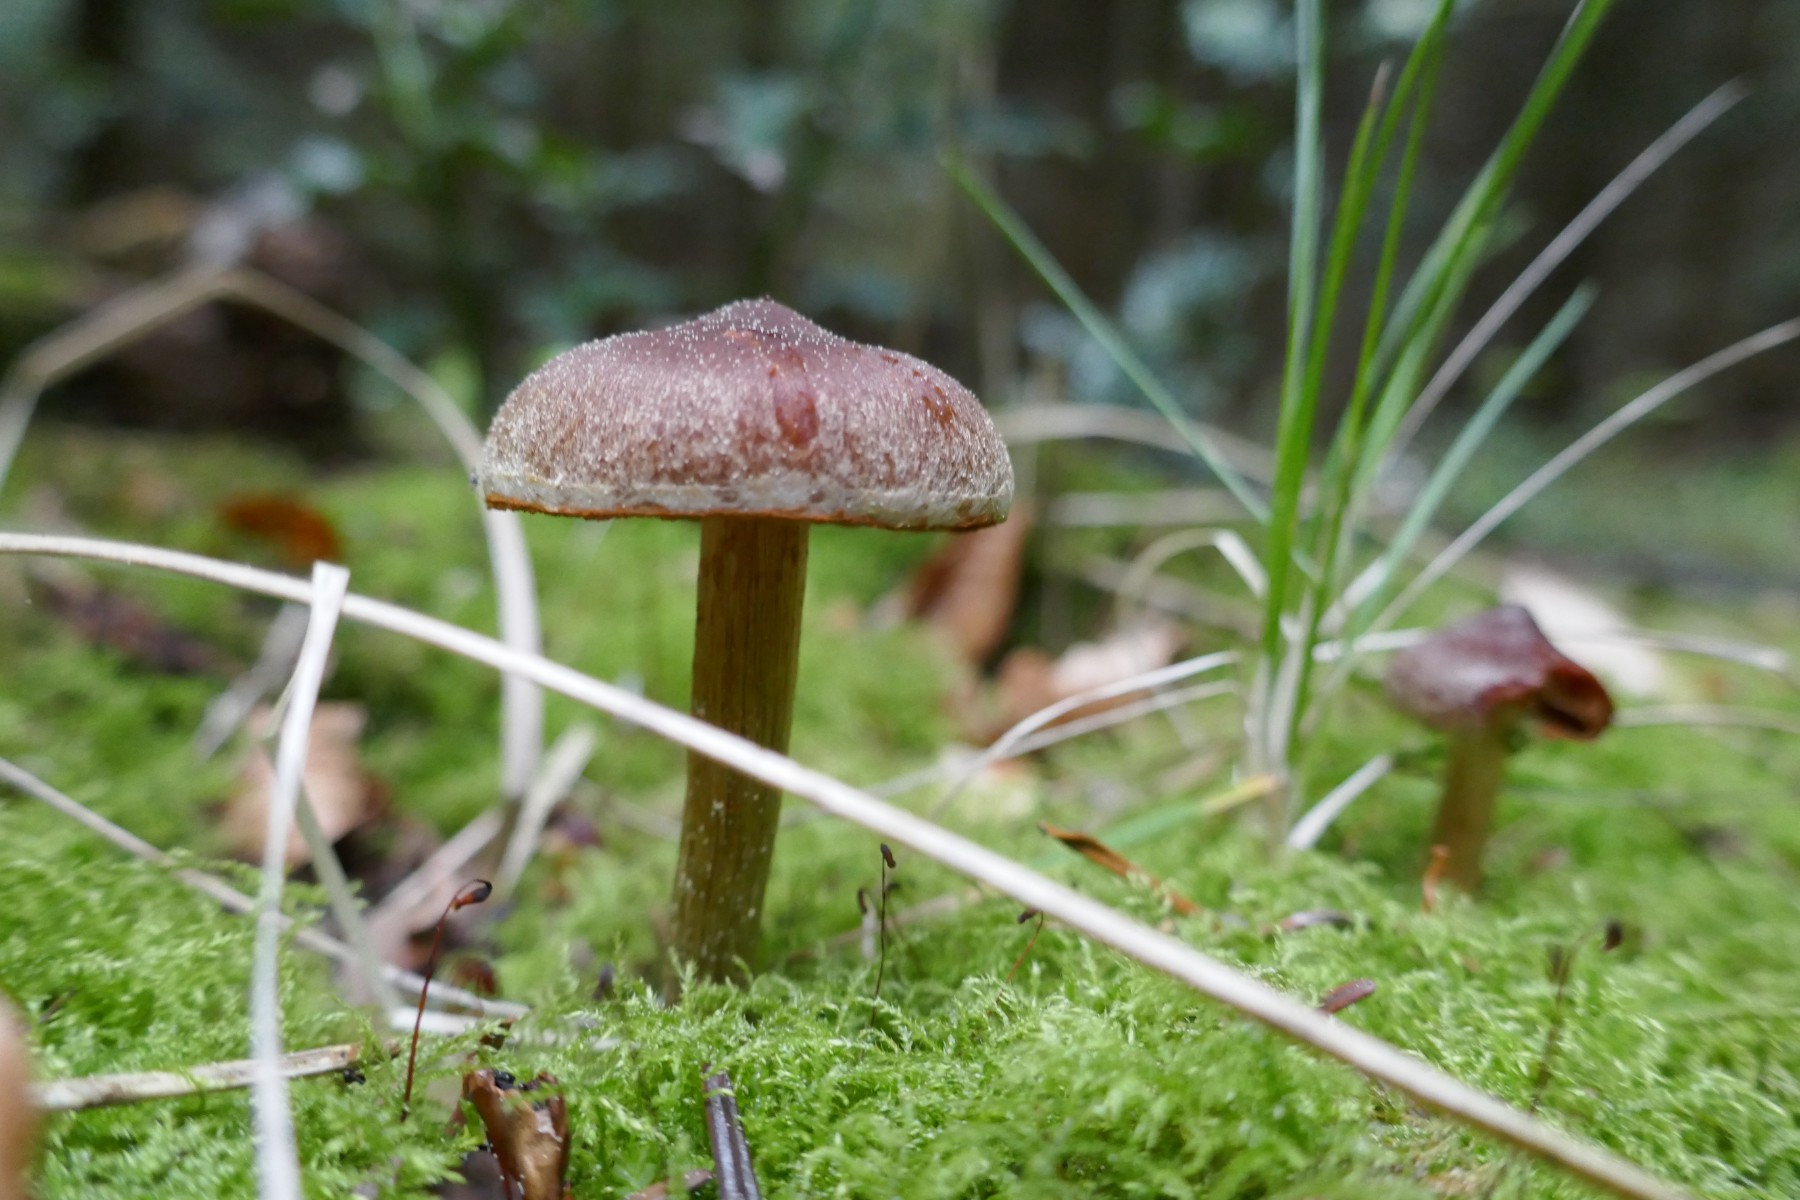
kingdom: Fungi
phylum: Basidiomycota
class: Agaricomycetes
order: Agaricales
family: Cortinariaceae
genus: Cortinarius
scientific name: Cortinarius
